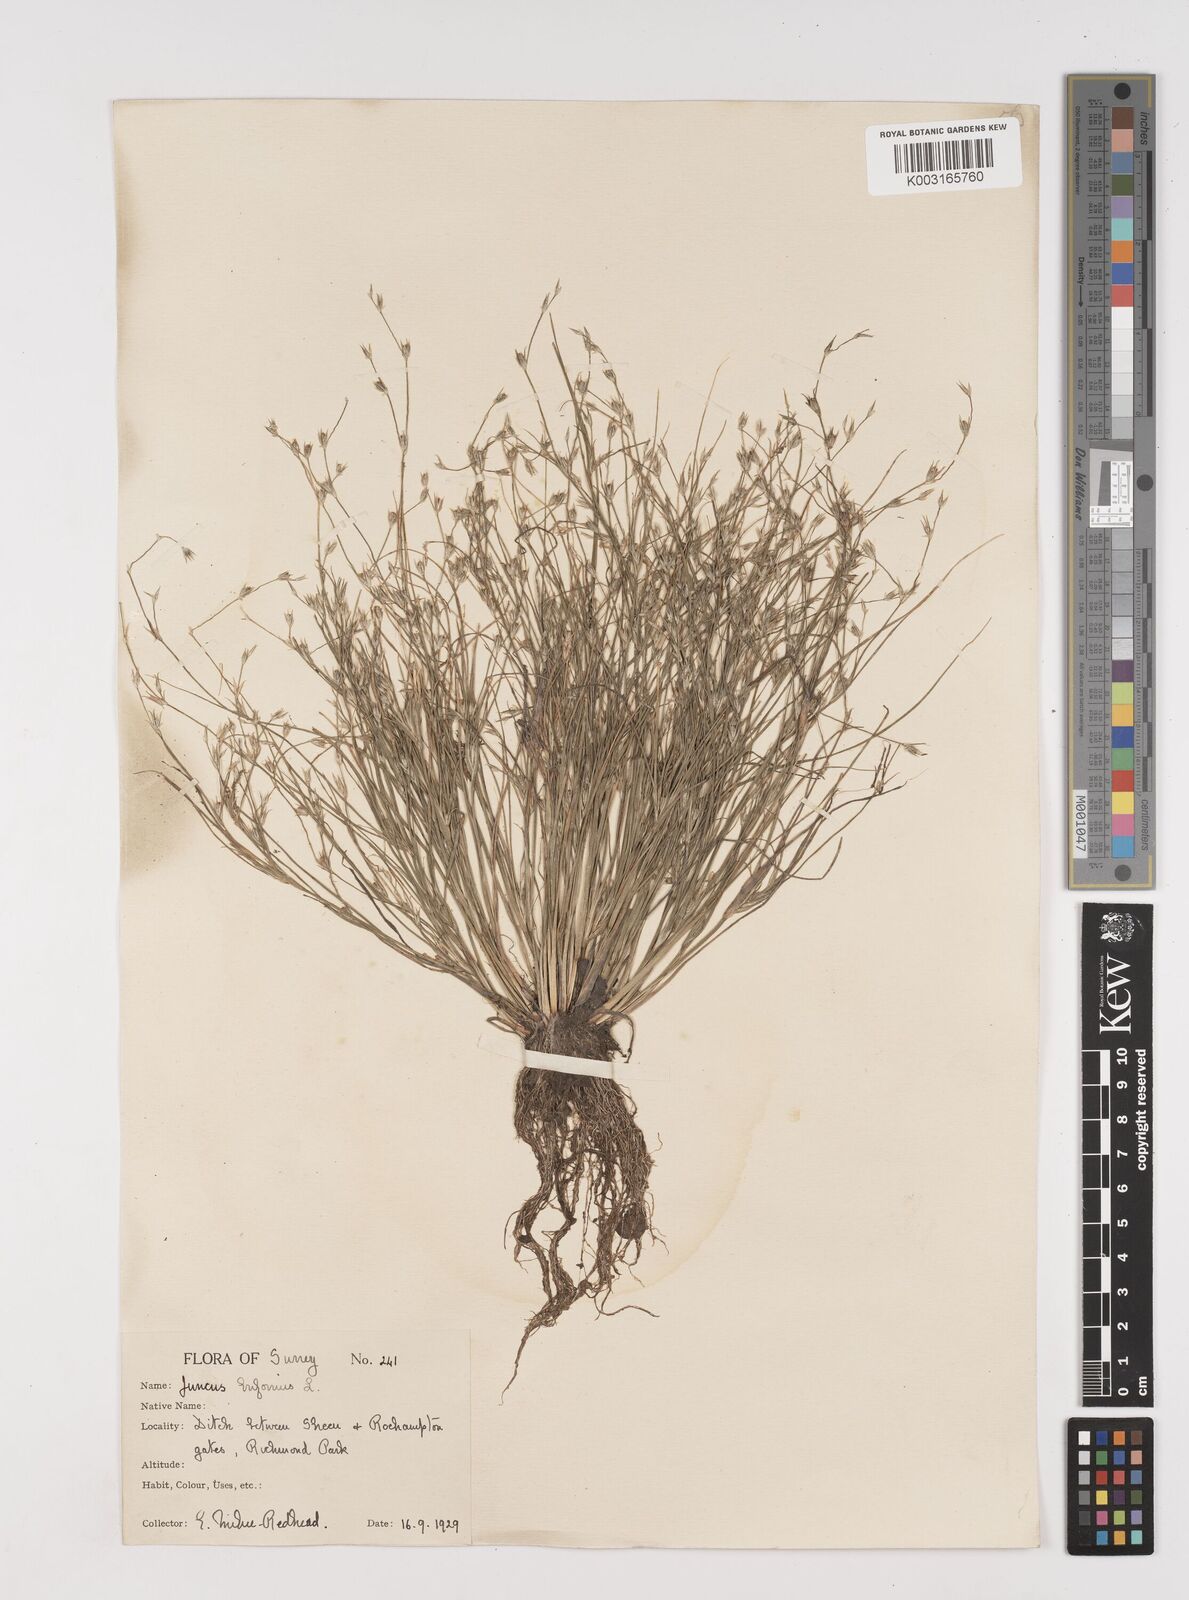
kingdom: Plantae
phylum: Tracheophyta
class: Liliopsida
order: Poales
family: Juncaceae
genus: Juncus
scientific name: Juncus bufonius
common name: Toad rush
